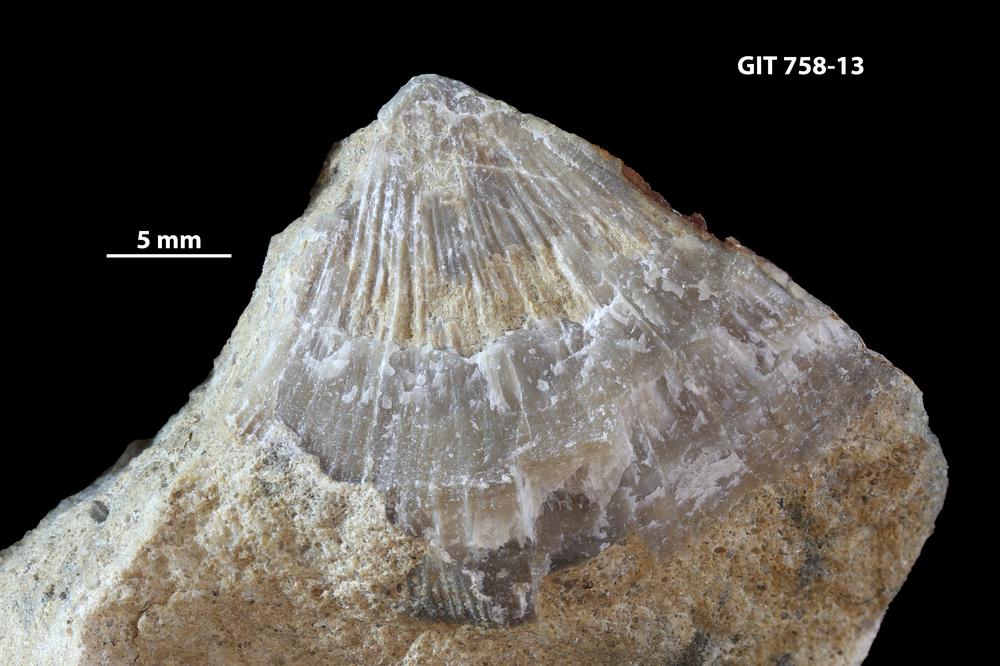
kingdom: Animalia
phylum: Brachiopoda
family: Gonambonitidae
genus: Antigonambonites
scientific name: Antigonambonites aequistriatus
